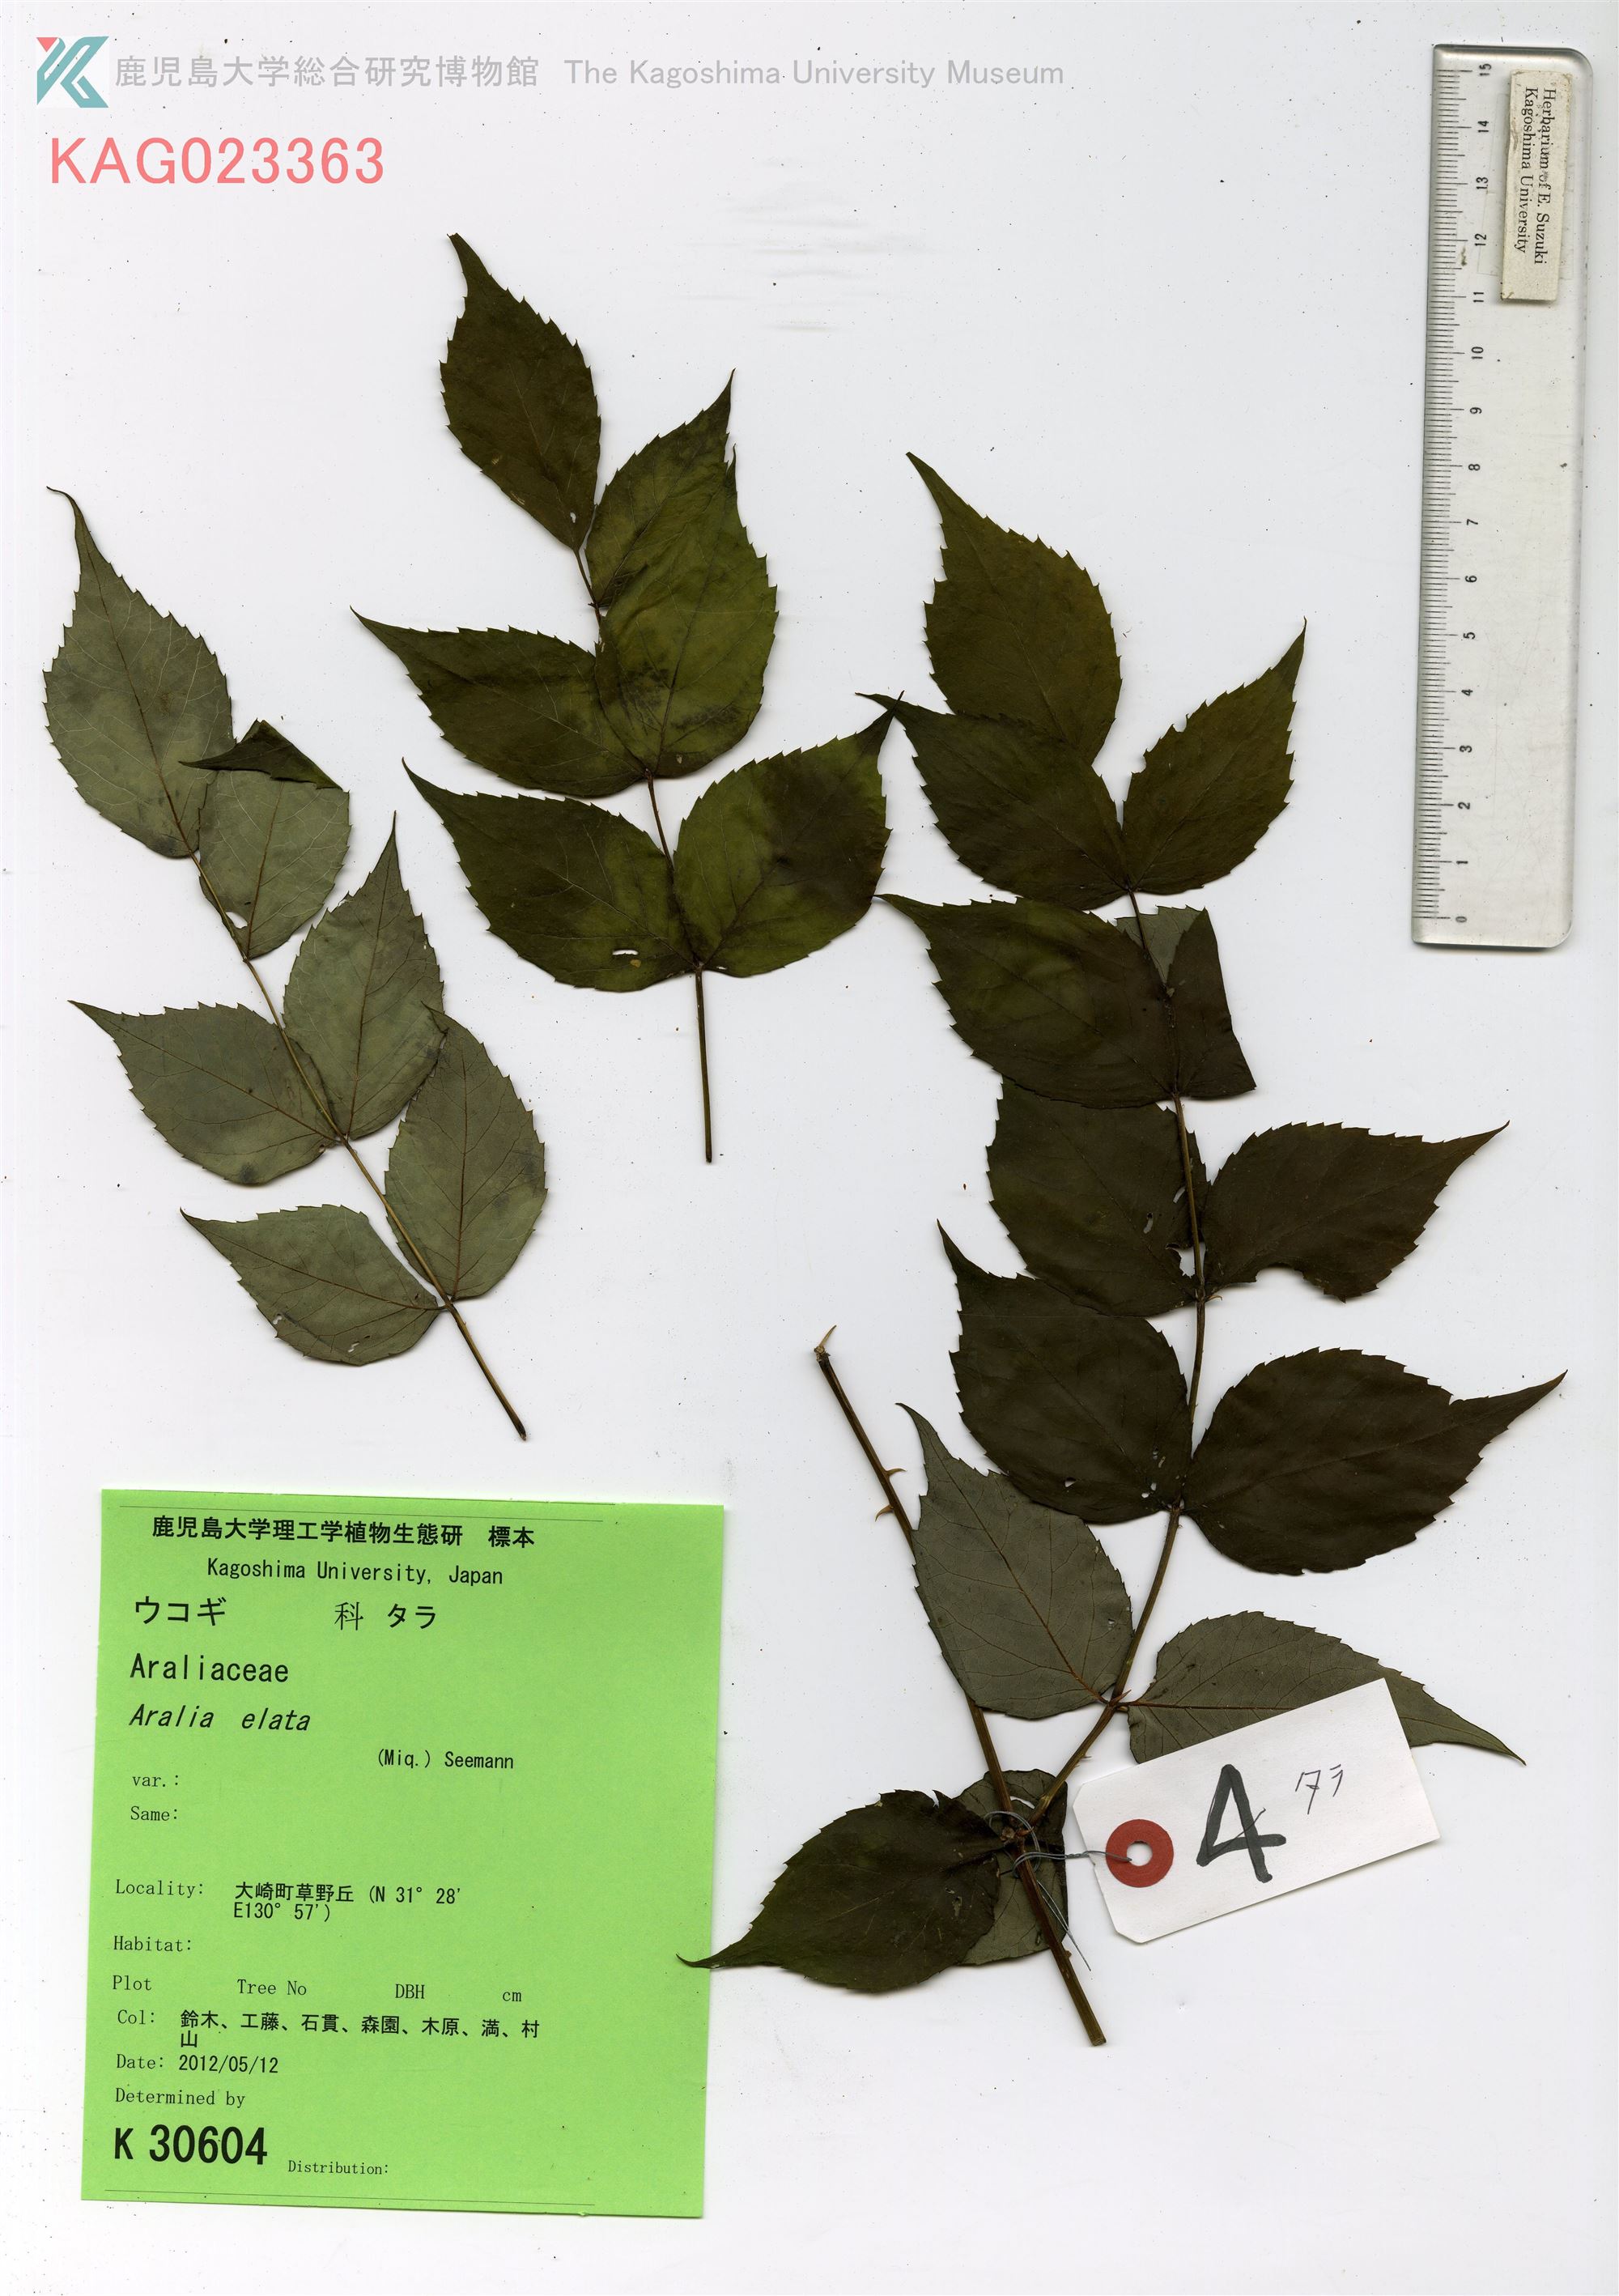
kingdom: Plantae
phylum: Tracheophyta
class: Magnoliopsida
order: Apiales
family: Araliaceae
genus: Aralia
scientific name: Aralia elata
